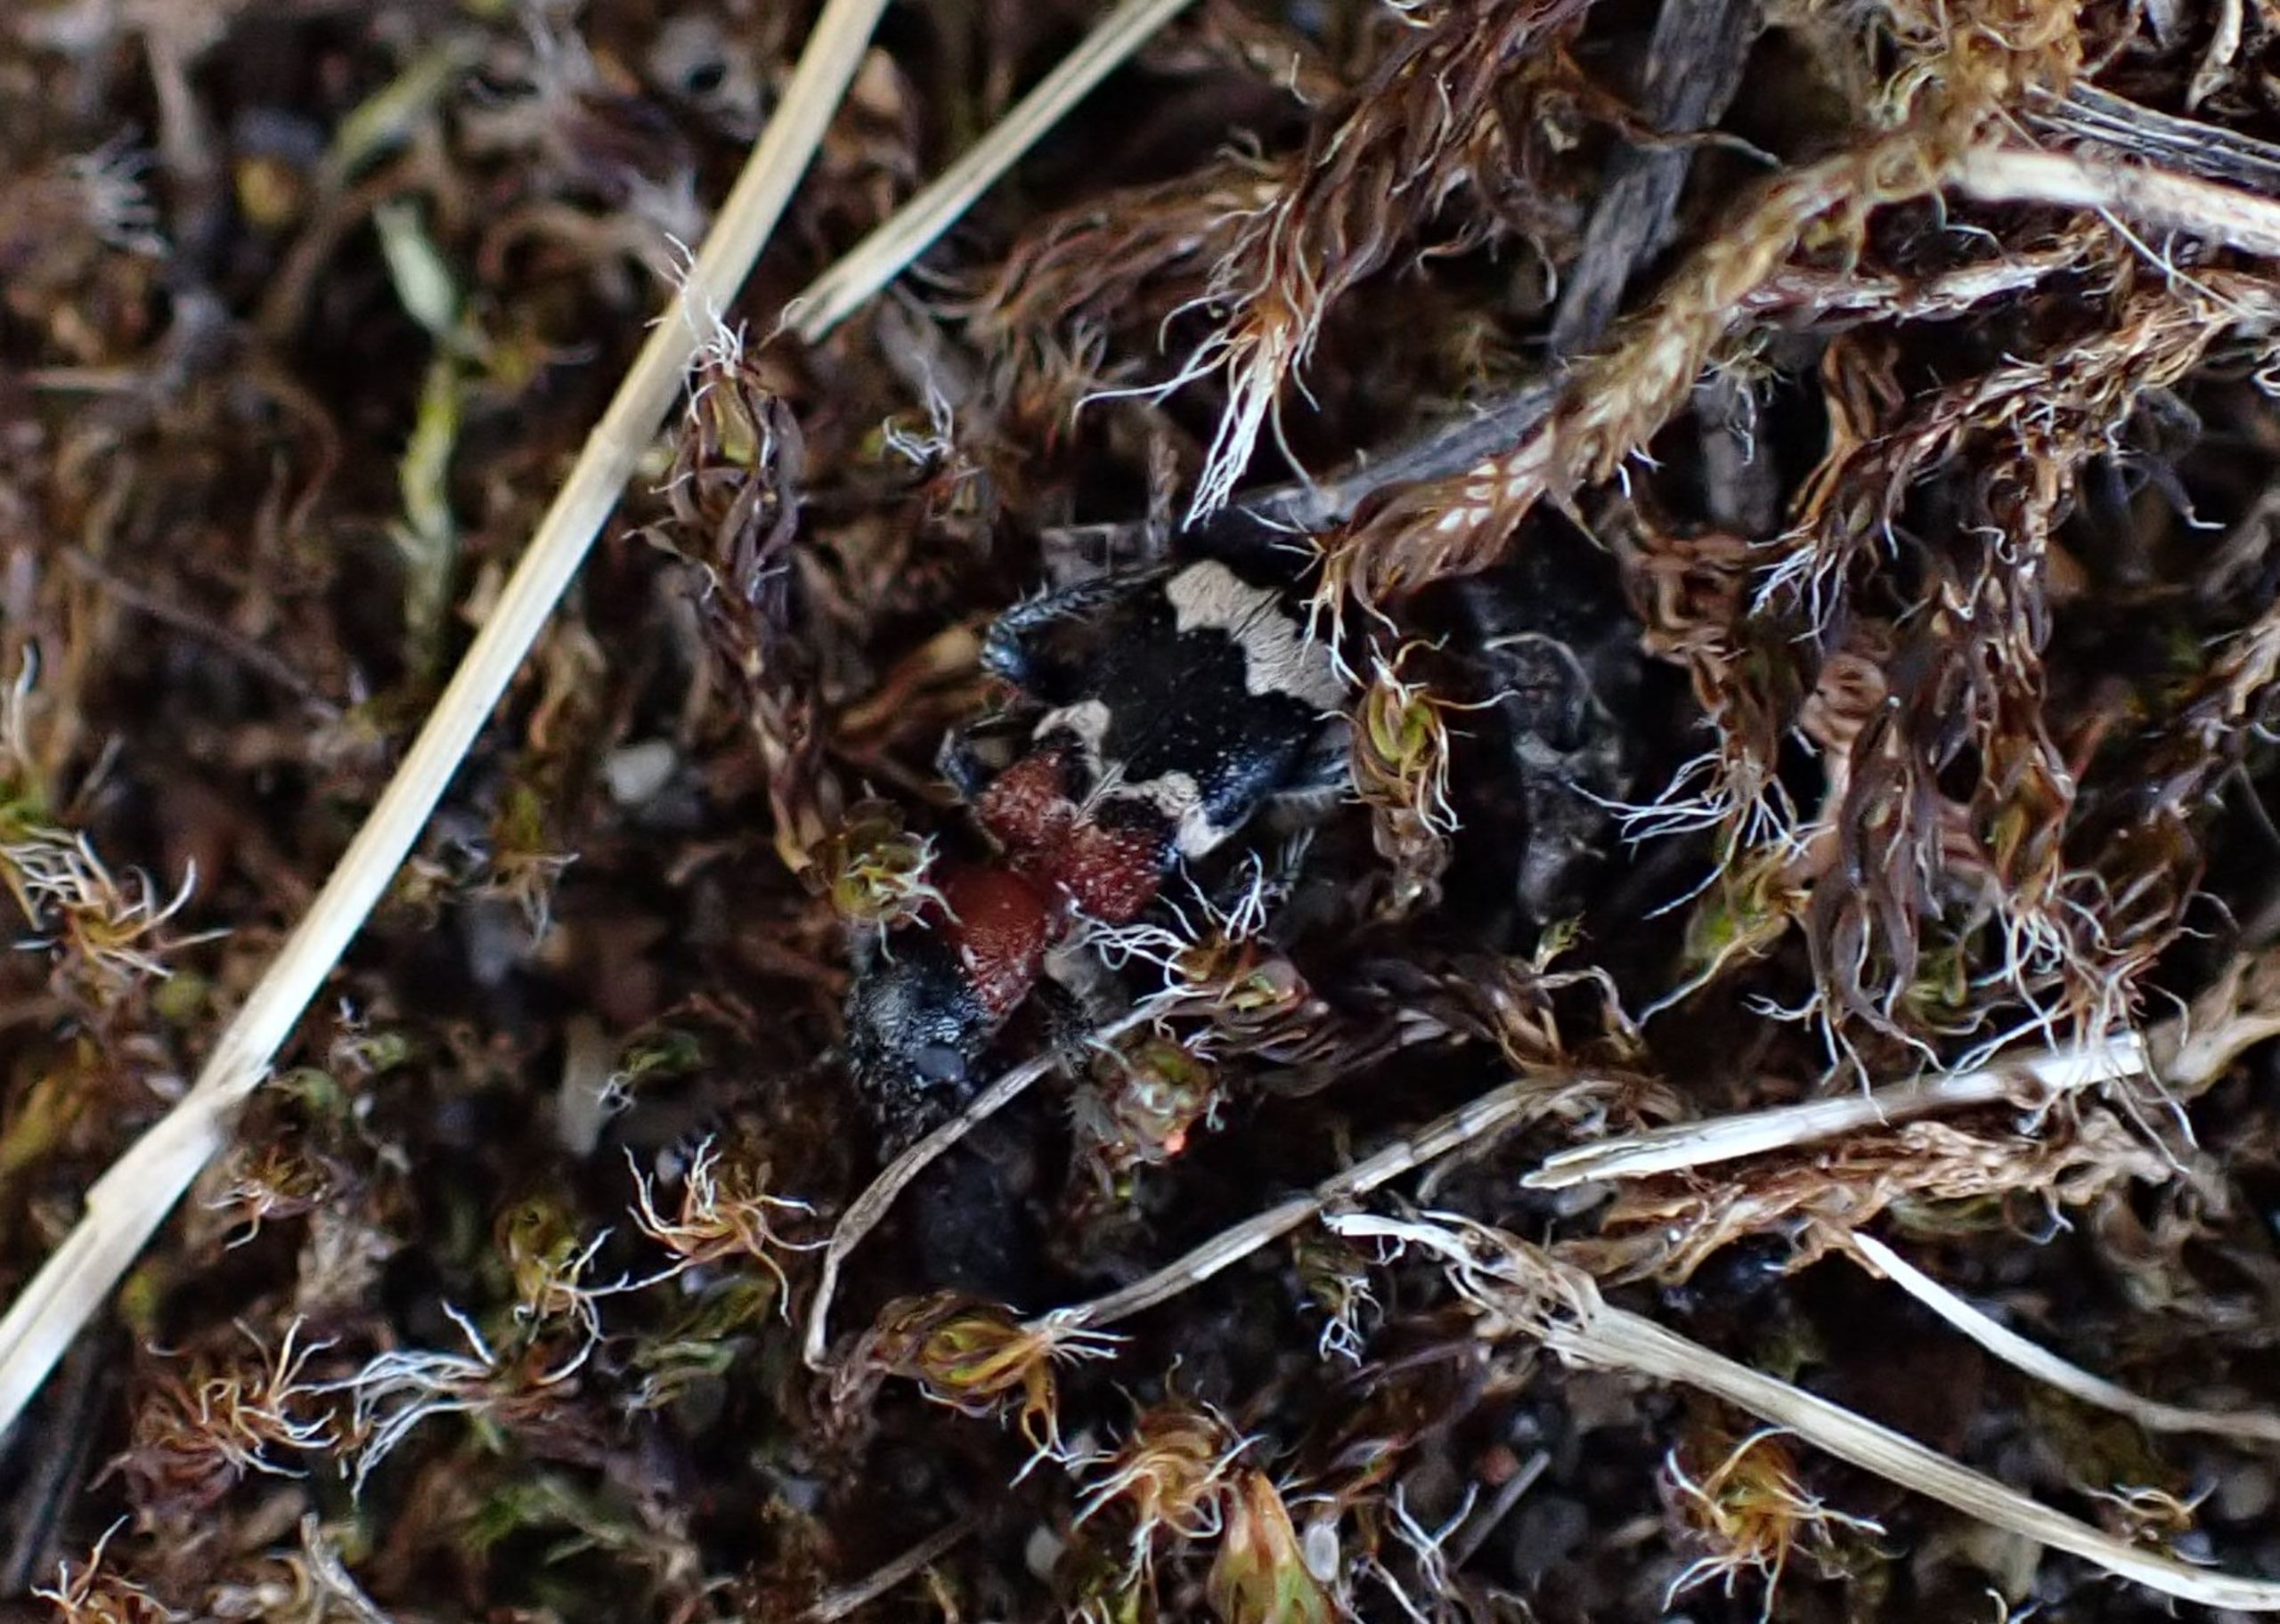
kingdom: Animalia
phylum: Arthropoda
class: Insecta
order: Coleoptera
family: Cleridae
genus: Thanasimus
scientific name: Thanasimus formicarius
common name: Myrebille
